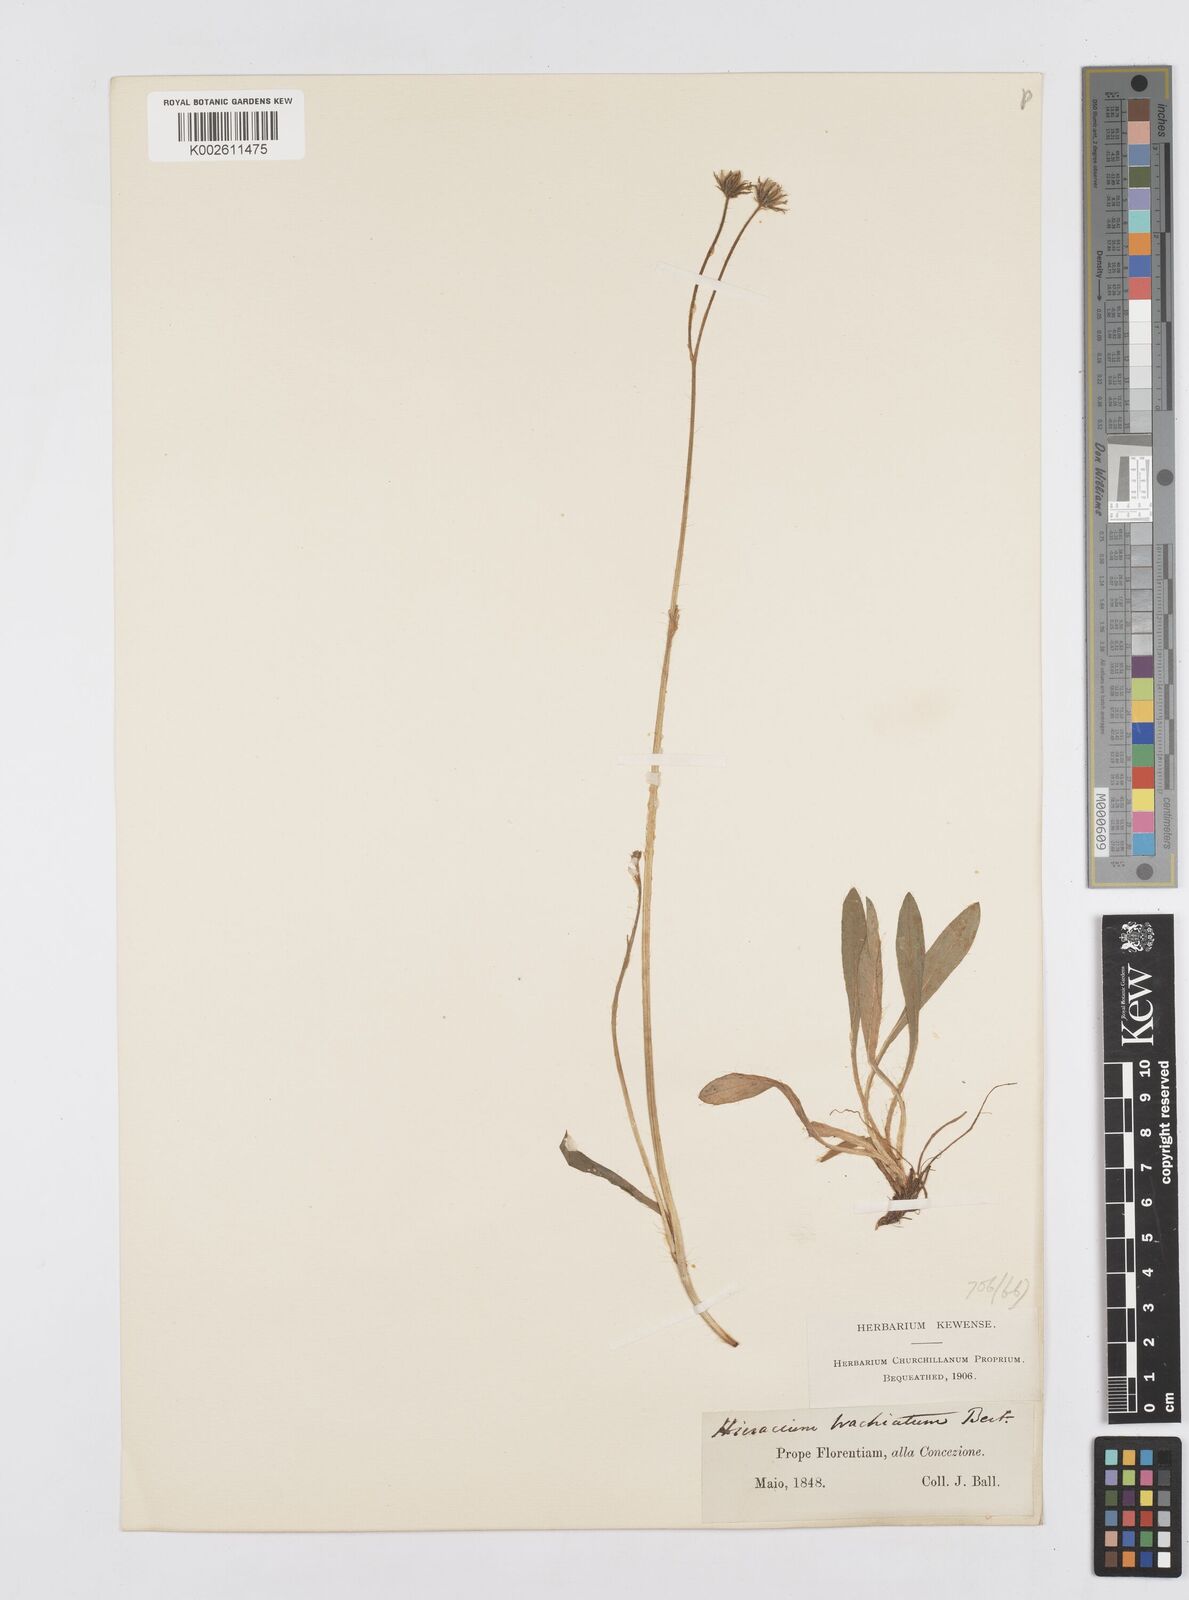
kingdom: Plantae
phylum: Tracheophyta
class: Magnoliopsida
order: Asterales
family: Asteraceae
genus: Pilosella
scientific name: Pilosella acutifolia
